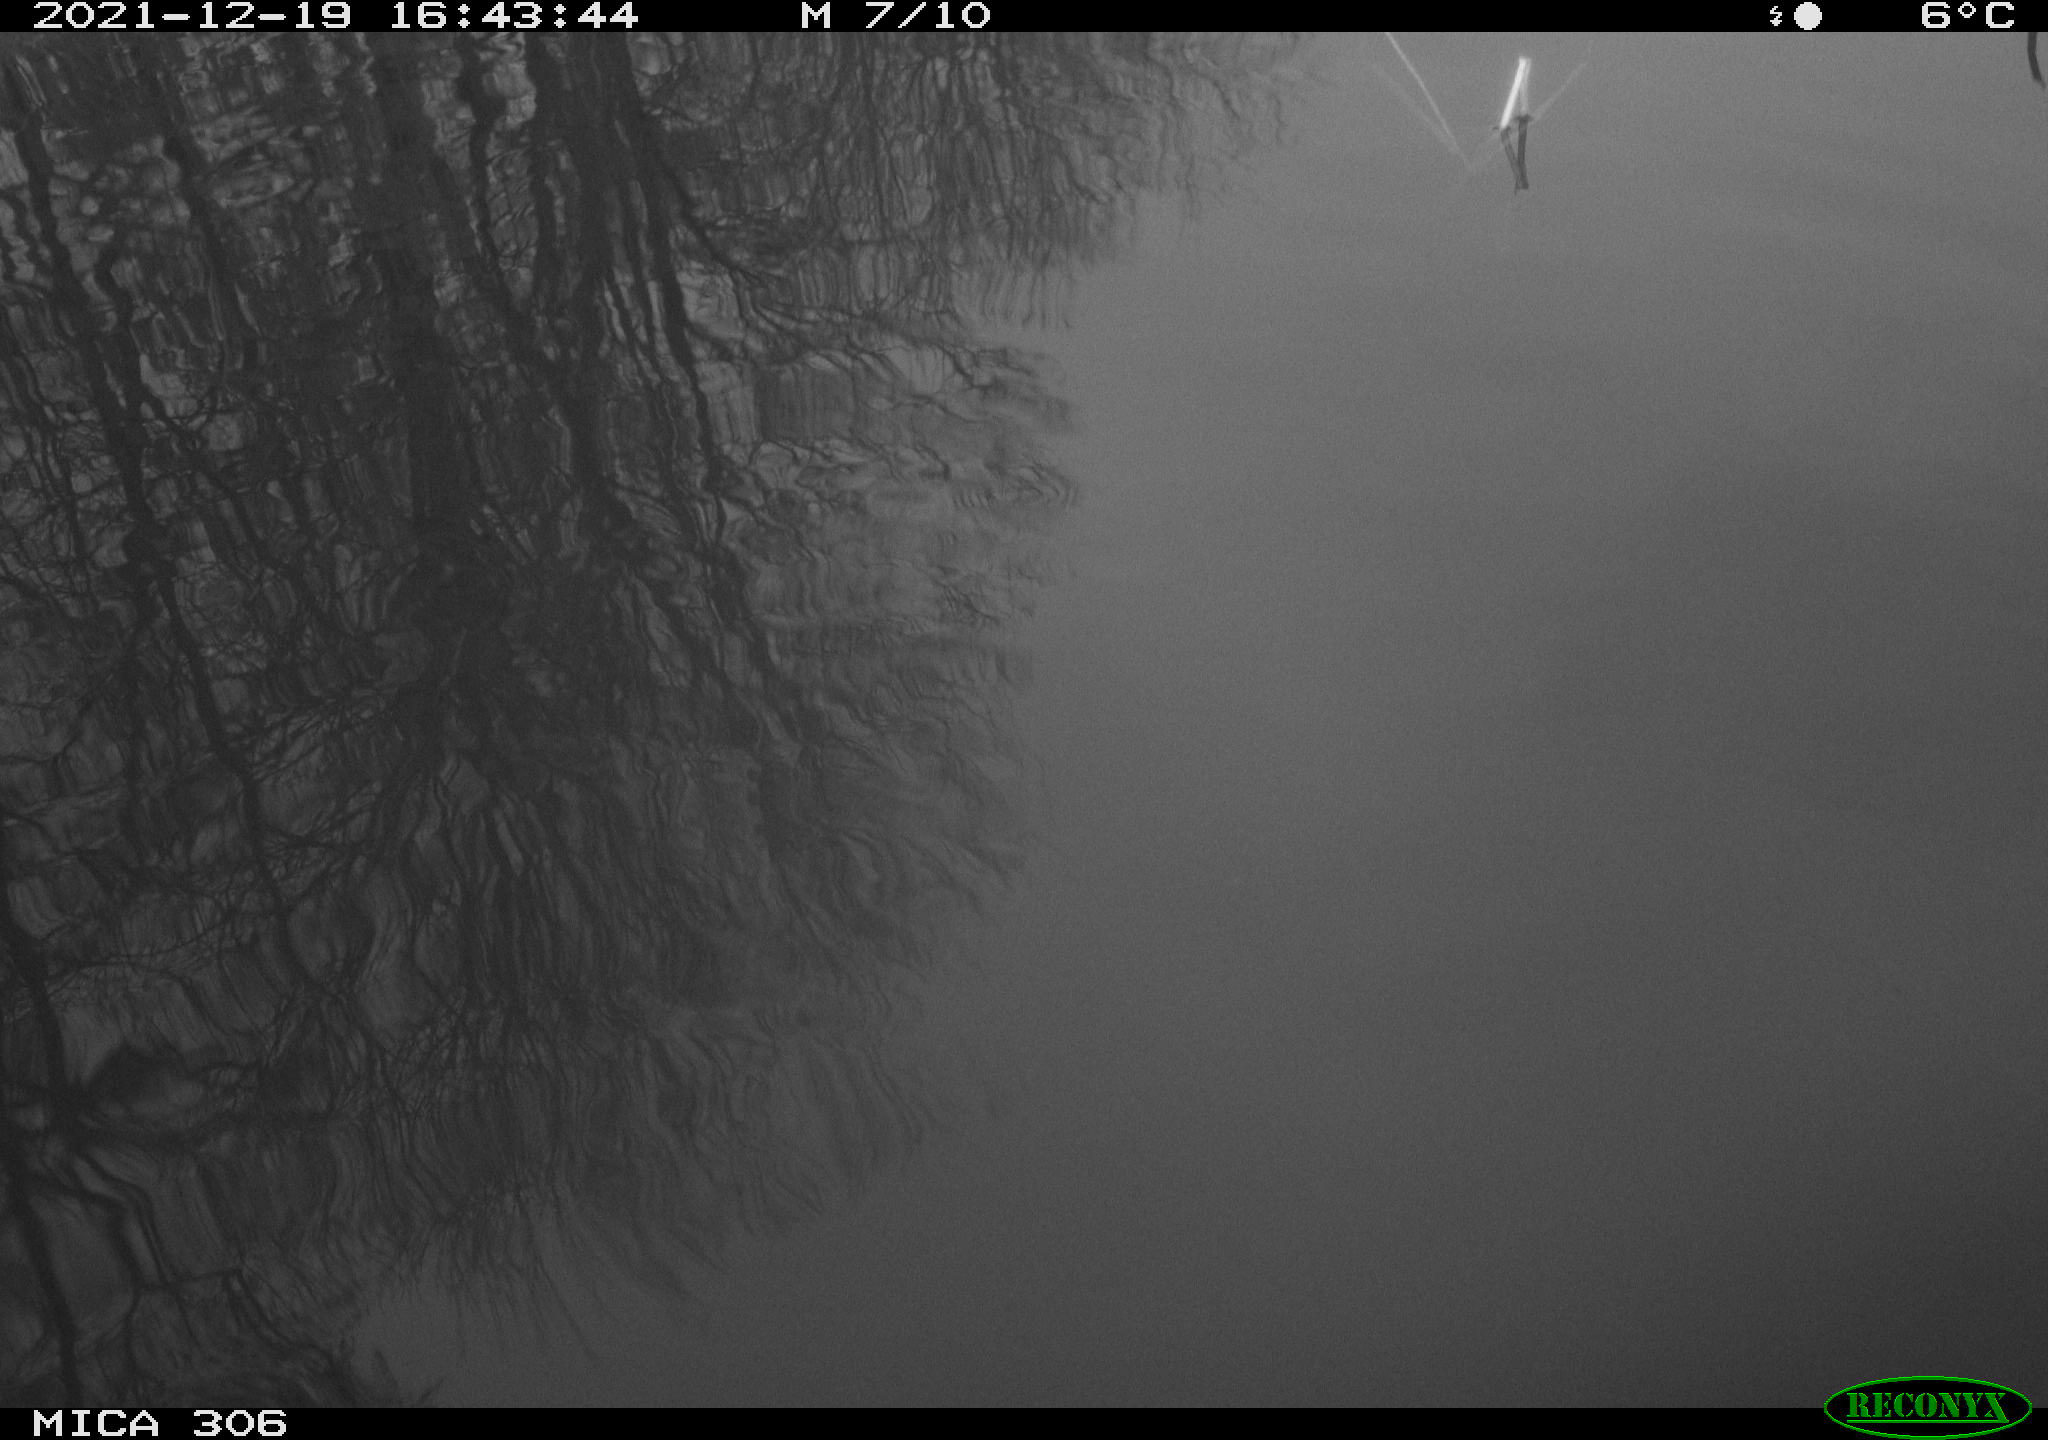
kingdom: Animalia
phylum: Chordata
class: Aves
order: Gruiformes
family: Rallidae
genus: Gallinula
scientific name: Gallinula chloropus
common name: Common moorhen
